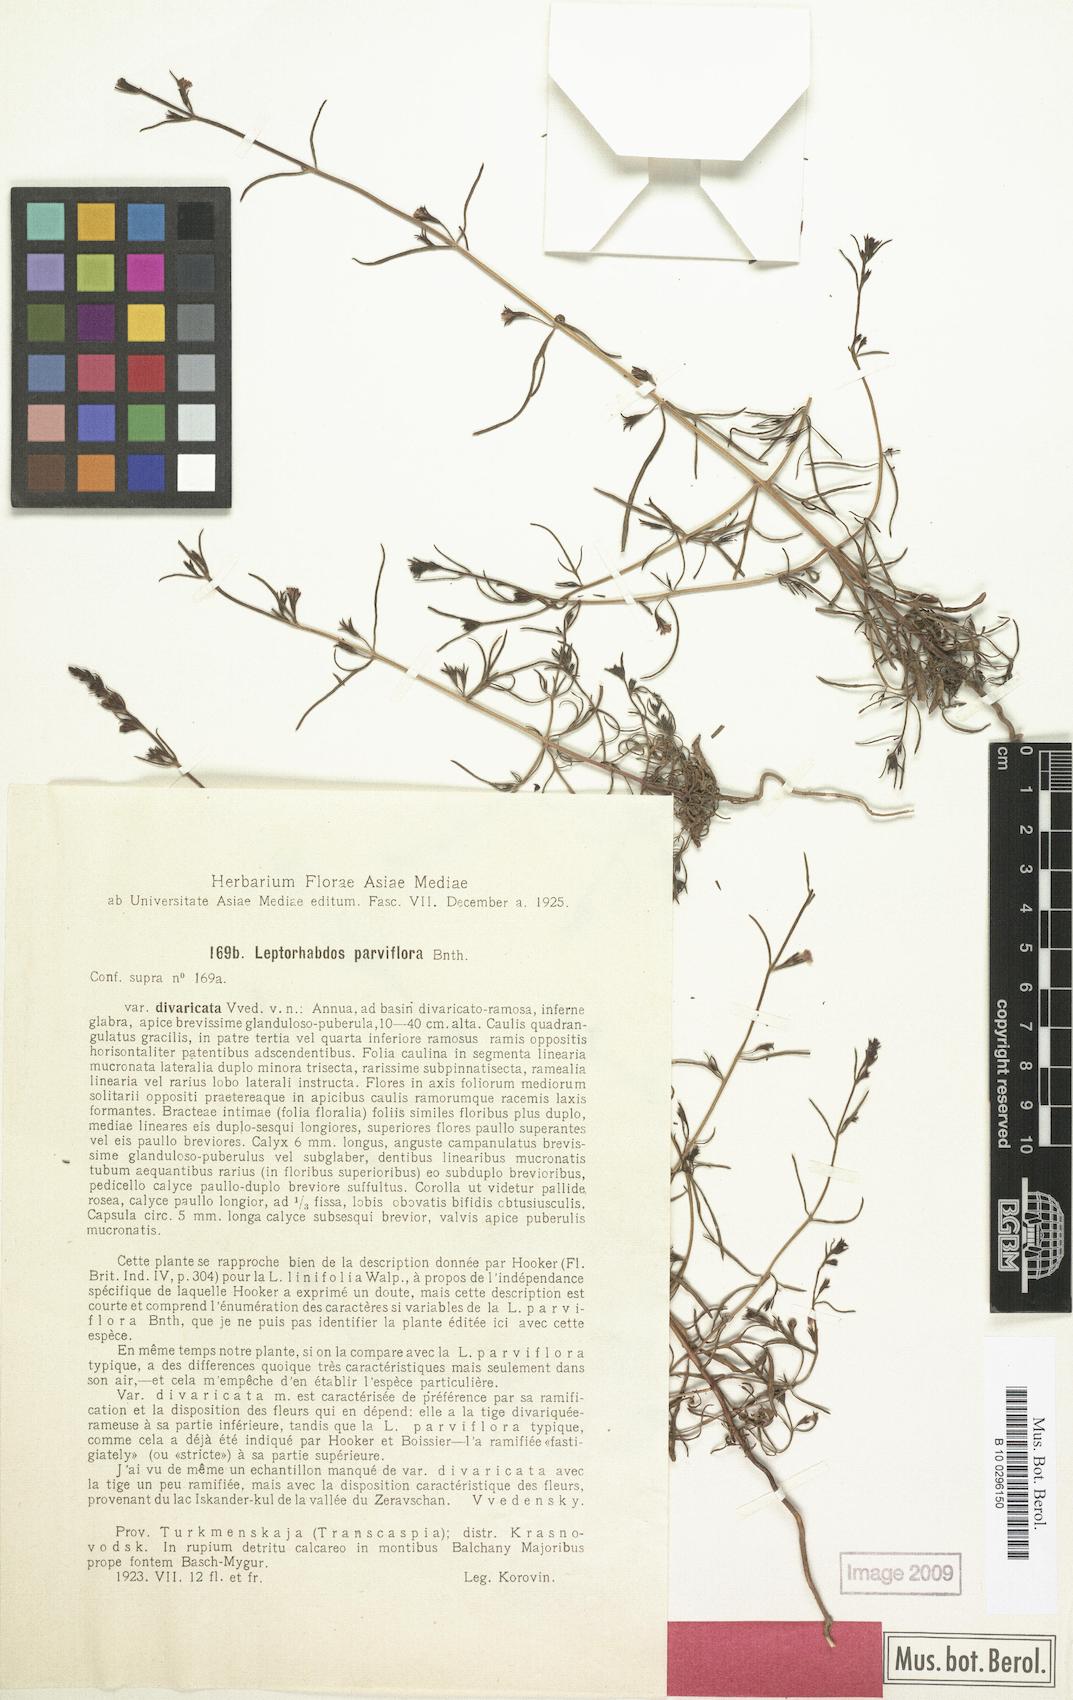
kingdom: Plantae
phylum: Tracheophyta
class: Magnoliopsida
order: Lamiales
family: Orobanchaceae
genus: Leptorhabdos
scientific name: Leptorhabdos parviflora
